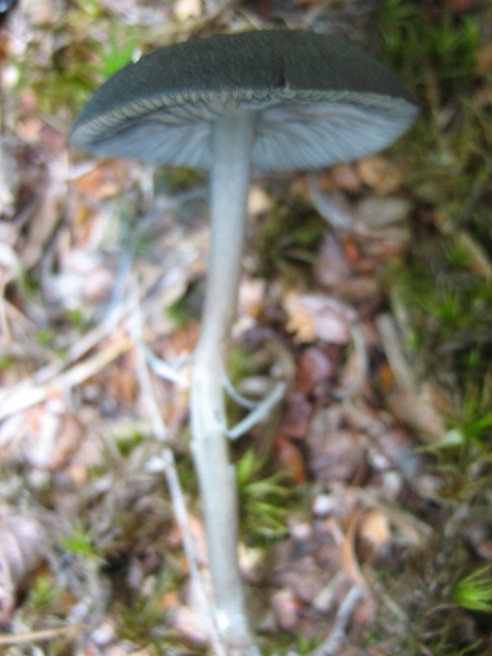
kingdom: Fungi
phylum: Basidiomycota
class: Agaricomycetes
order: Agaricales
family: Entolomataceae
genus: Entoloma
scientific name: Entoloma
